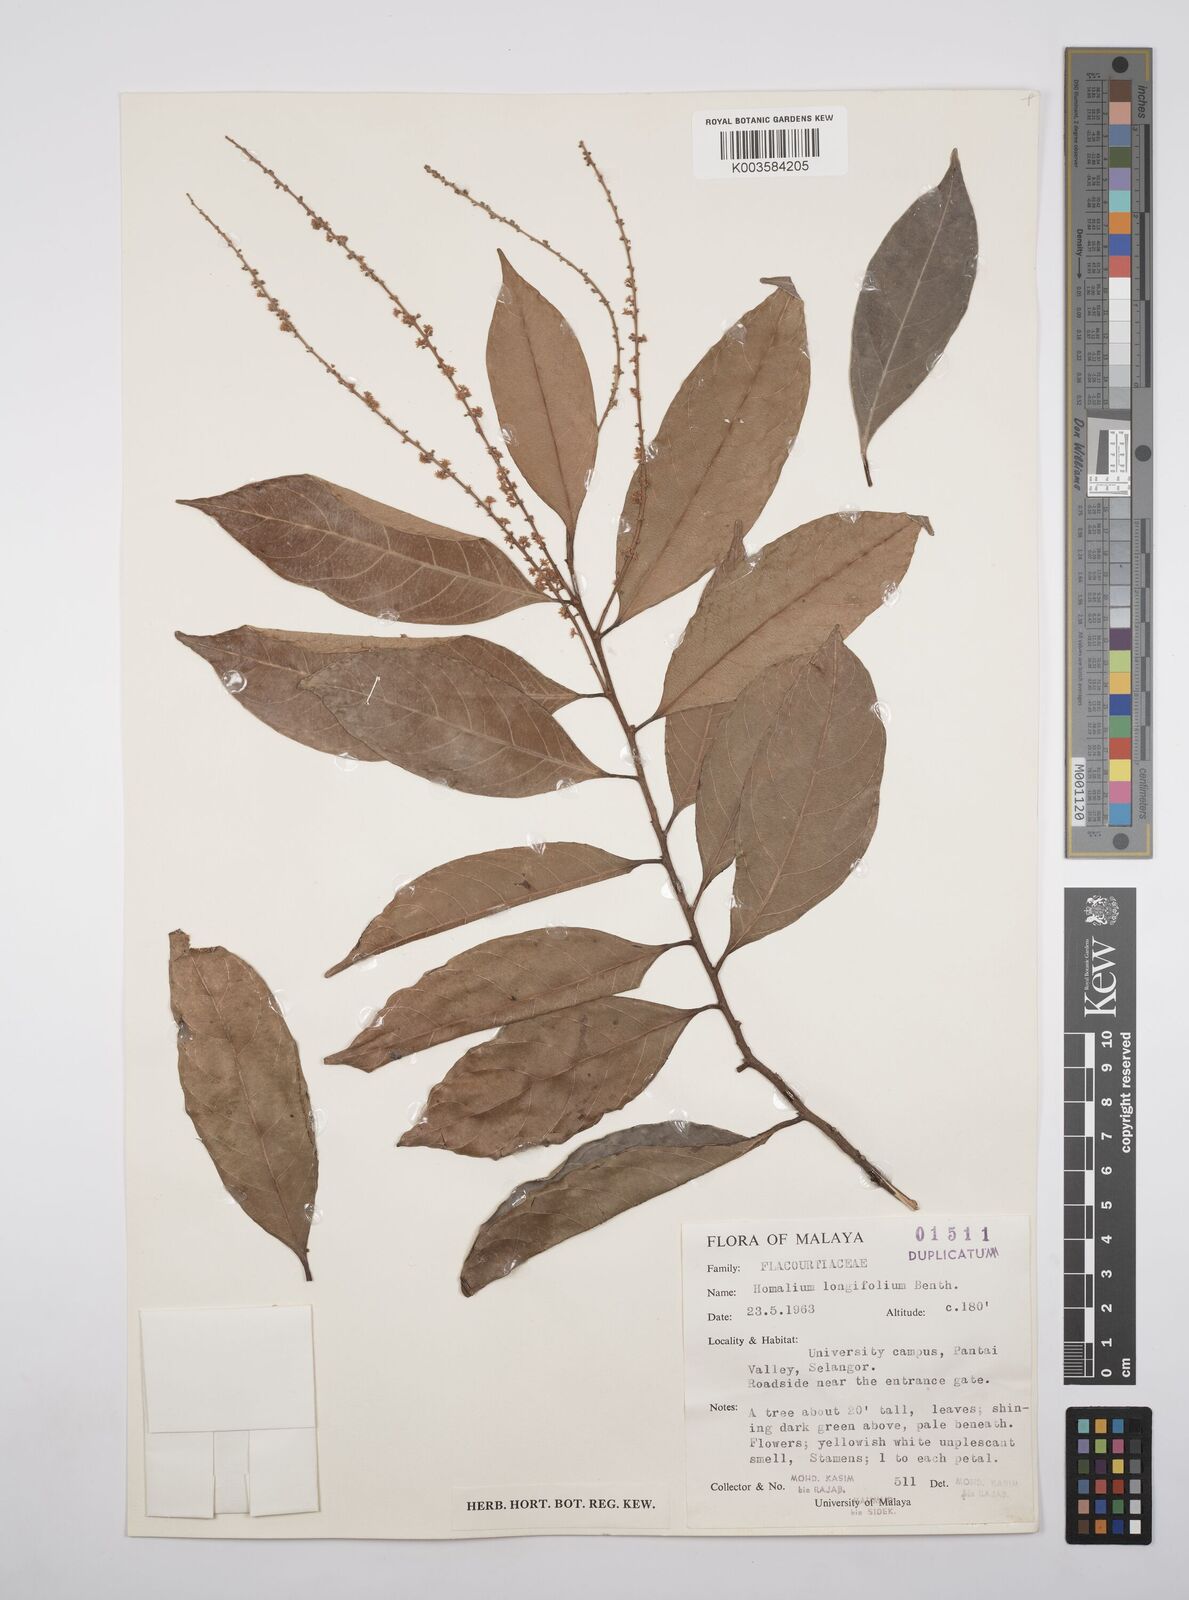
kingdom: Plantae
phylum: Tracheophyta
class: Magnoliopsida
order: Malpighiales
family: Salicaceae
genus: Homalium
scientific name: Homalium longifolium
